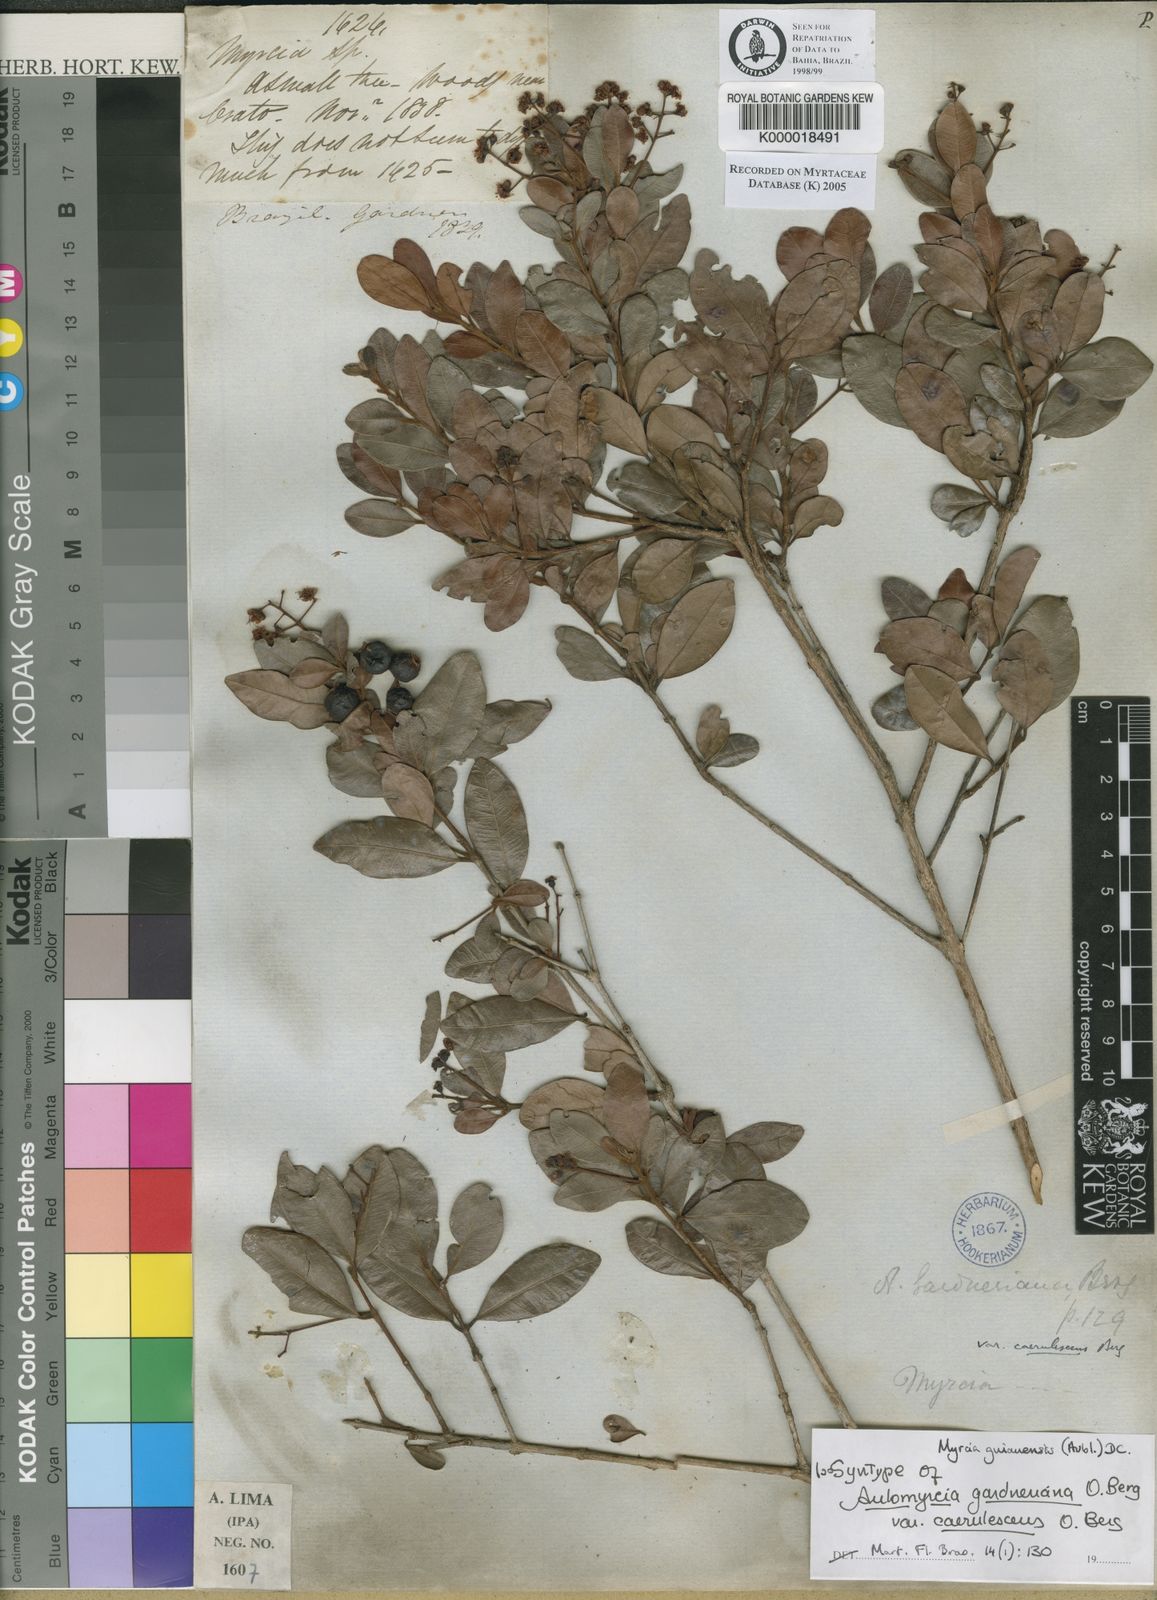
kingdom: Plantae
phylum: Tracheophyta
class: Magnoliopsida
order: Myrtales
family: Myrtaceae
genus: Myrcia
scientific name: Myrcia guianensis
